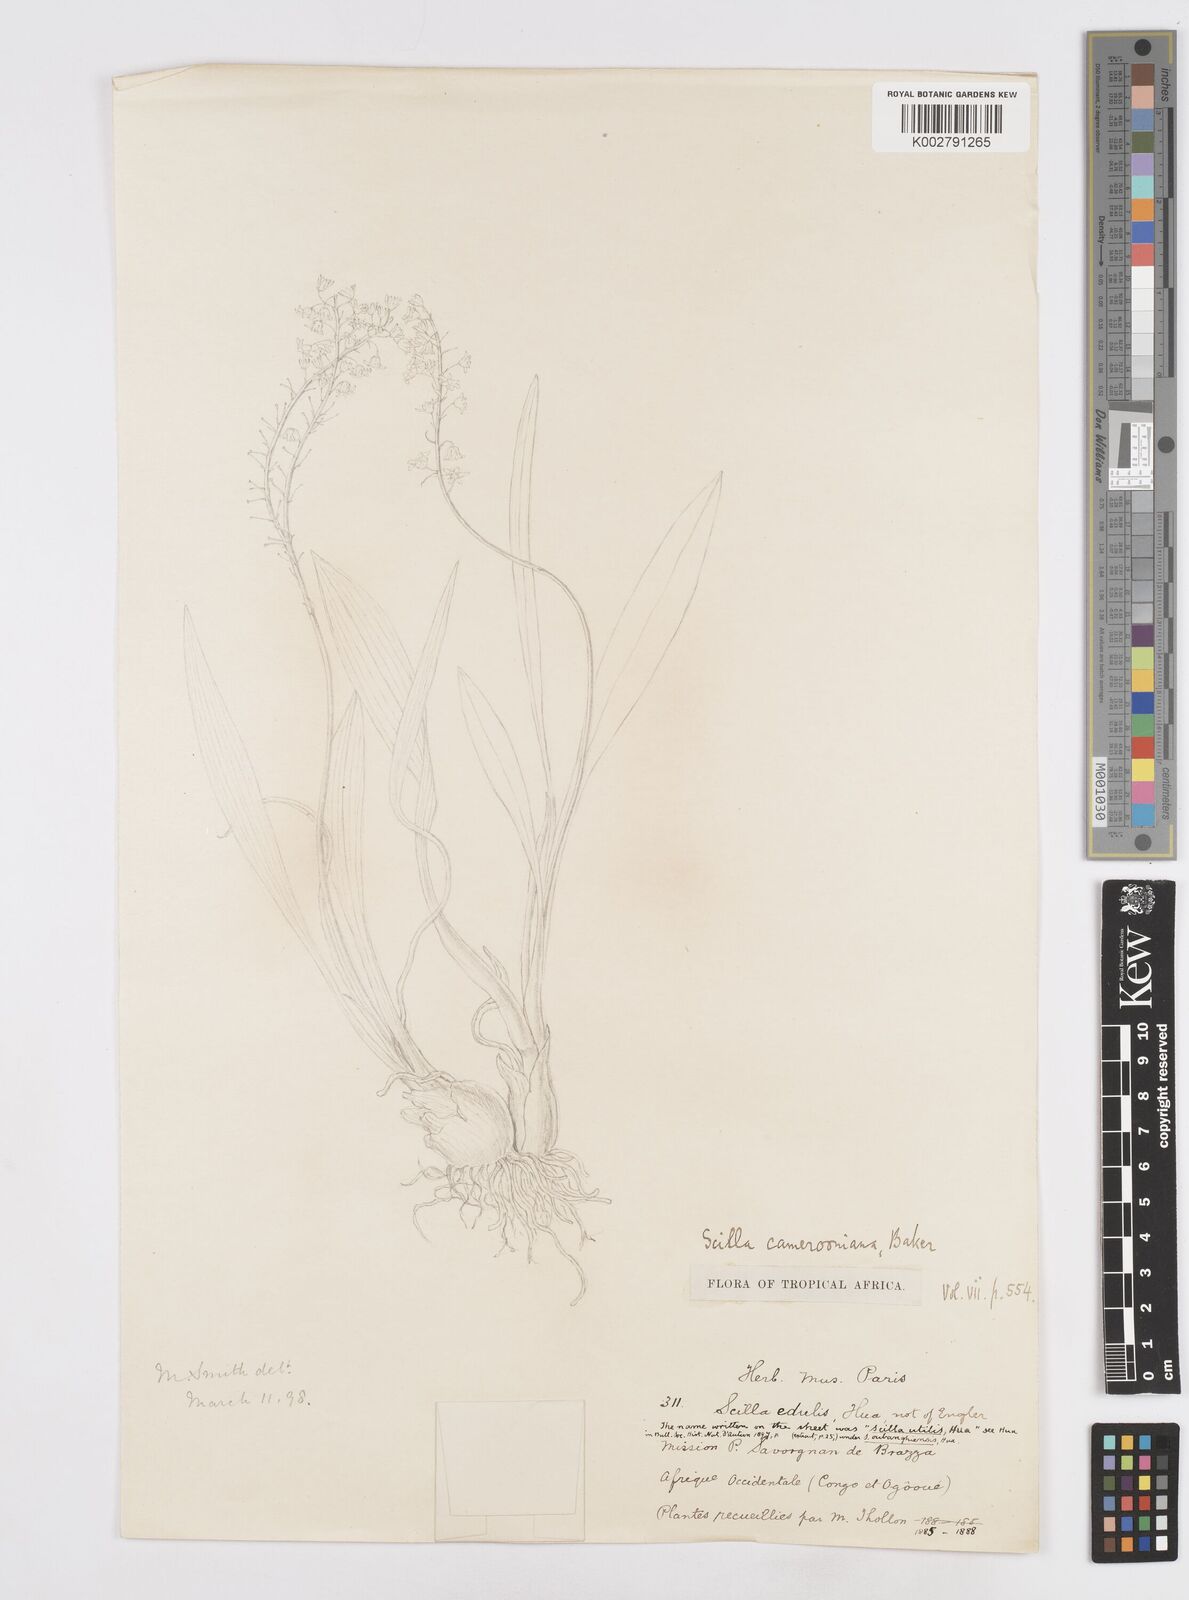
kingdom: Plantae
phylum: Tracheophyta
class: Liliopsida
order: Asparagales
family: Asparagaceae
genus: Ledebouria
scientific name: Ledebouria camerooniana
